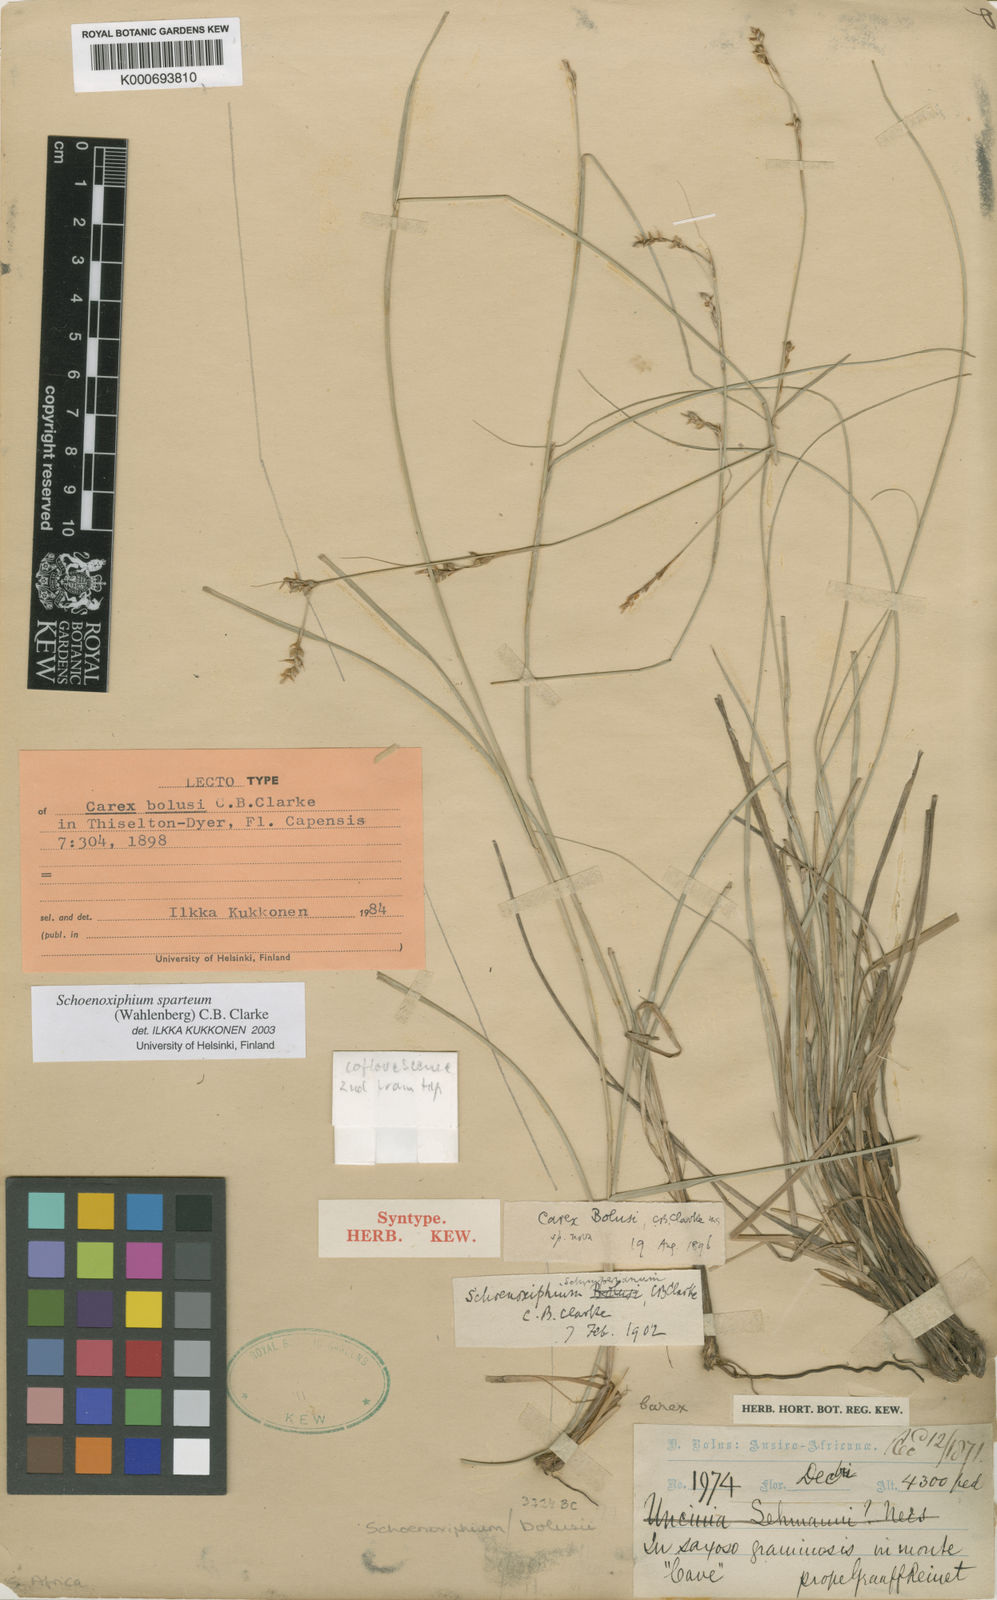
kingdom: Plantae
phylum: Tracheophyta
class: Liliopsida
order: Poales
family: Cyperaceae
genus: Carex
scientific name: Carex spartea
